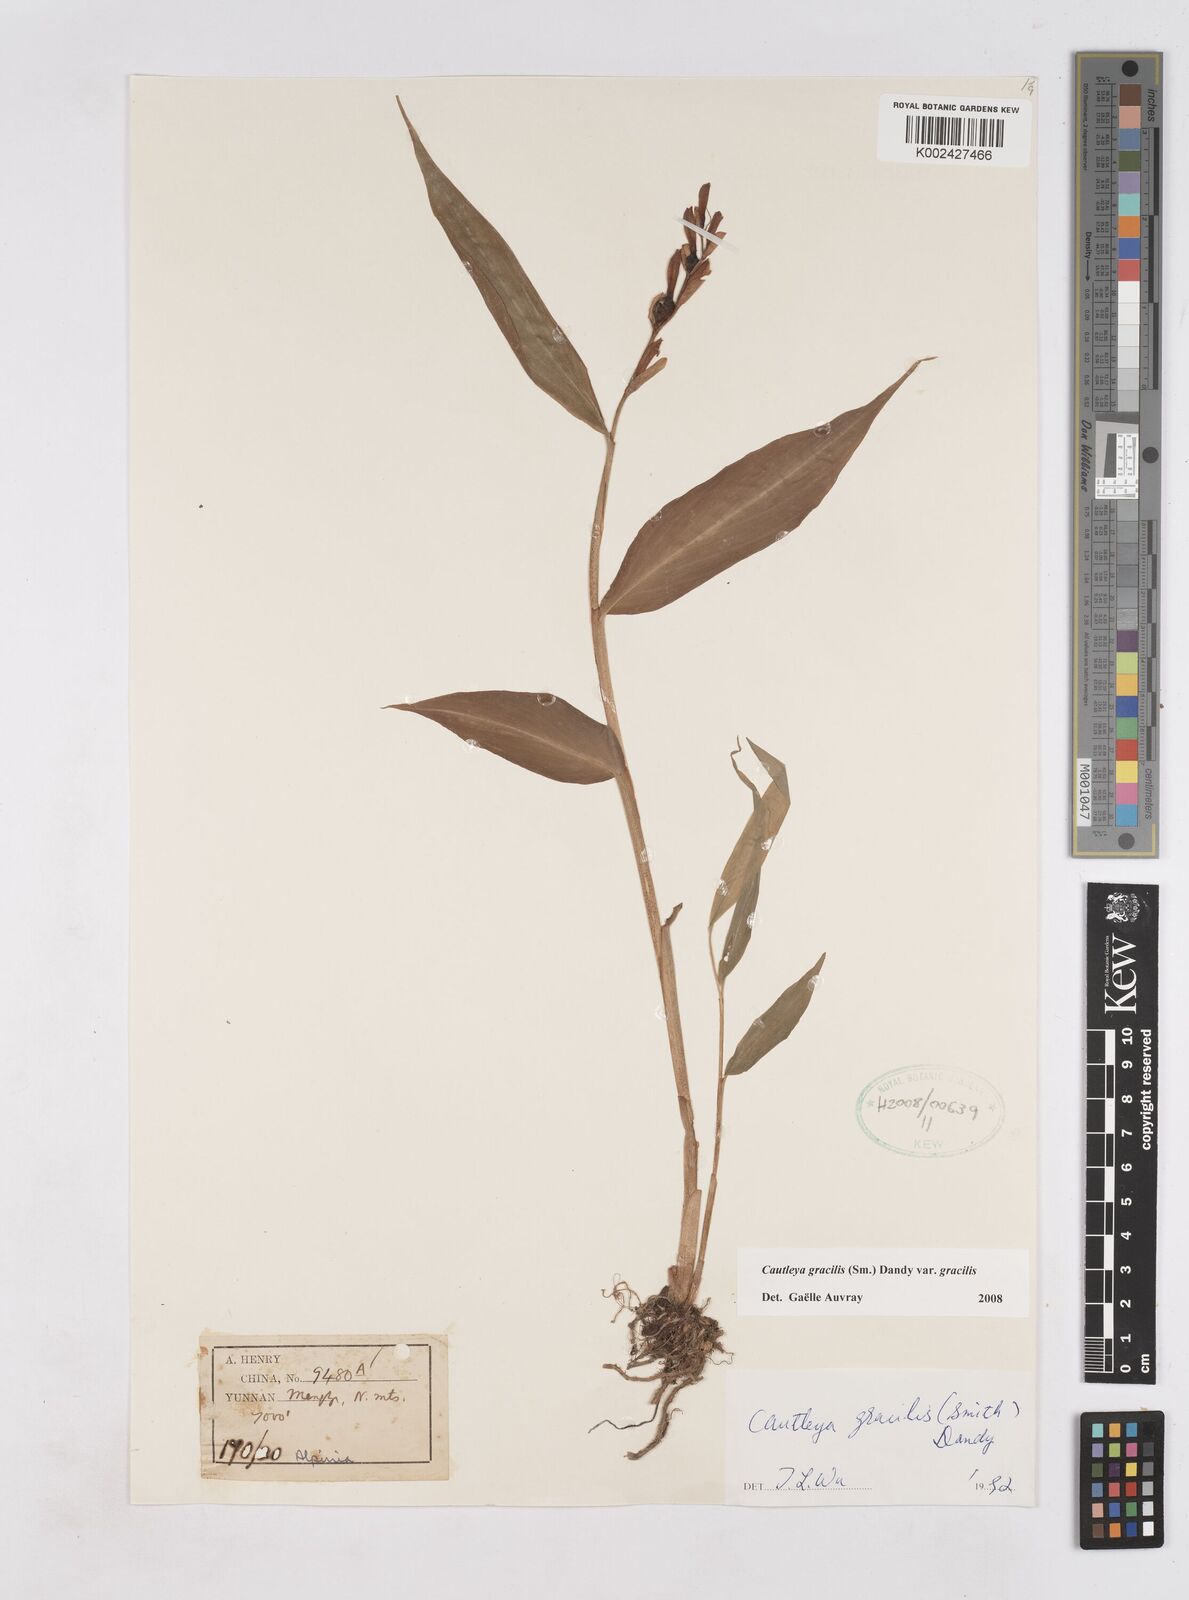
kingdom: Plantae
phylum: Tracheophyta
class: Liliopsida
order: Zingiberales
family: Zingiberaceae
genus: Cautleya
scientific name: Cautleya gracilis
